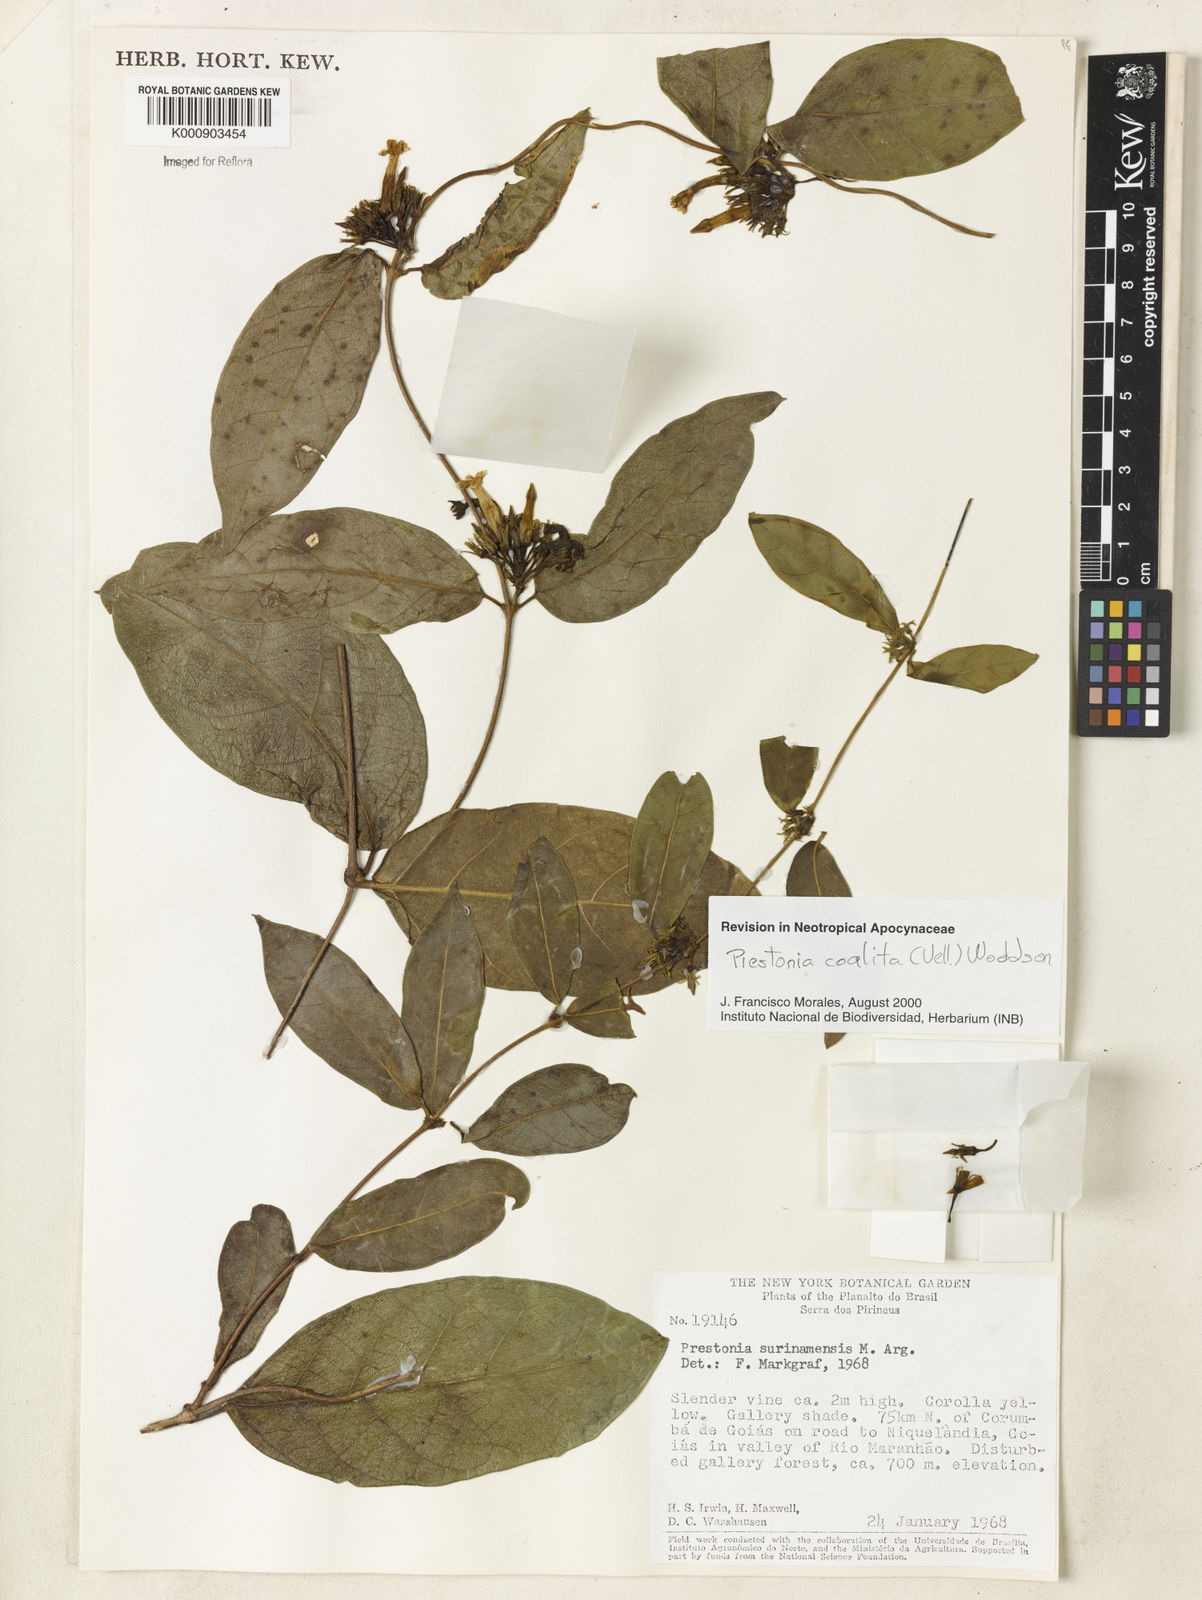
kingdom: Plantae
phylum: Tracheophyta
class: Magnoliopsida
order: Gentianales
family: Apocynaceae
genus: Prestonia
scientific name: Prestonia coalita
